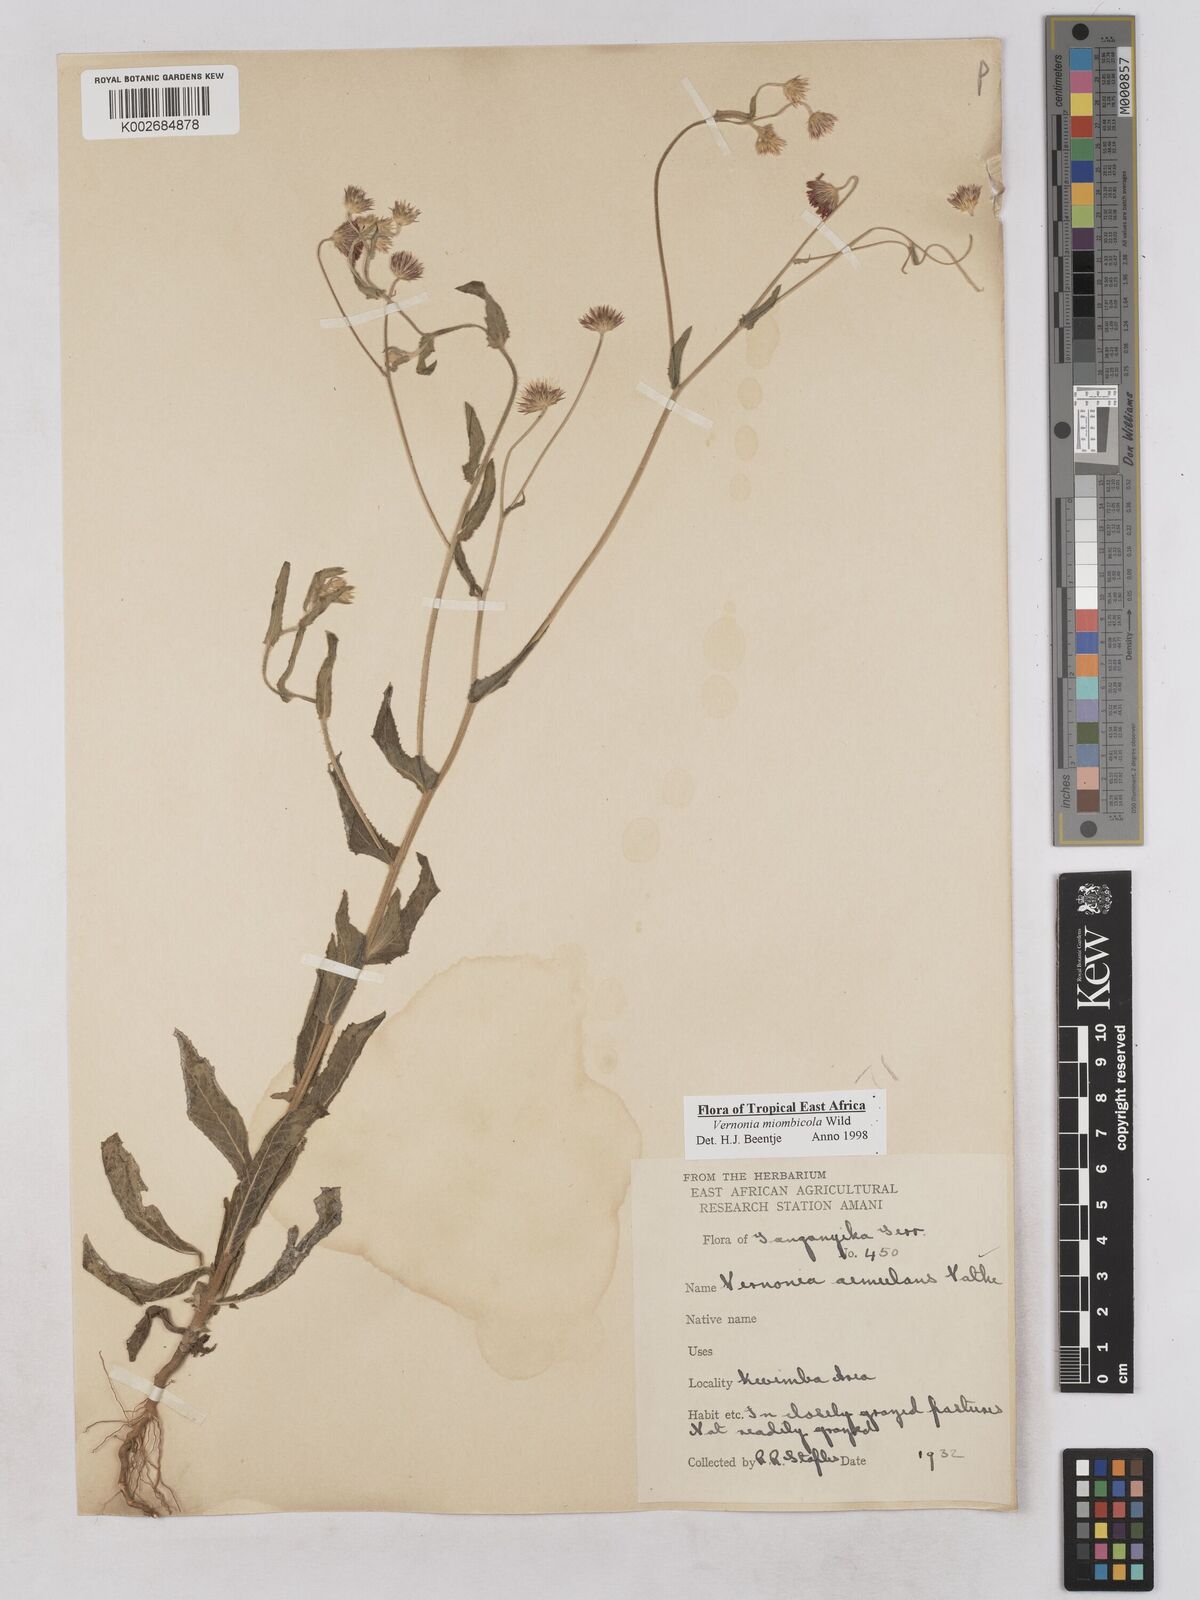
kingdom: Plantae
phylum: Tracheophyta
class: Magnoliopsida
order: Asterales
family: Asteraceae
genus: Vernonia
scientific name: Vernonia miombicola
